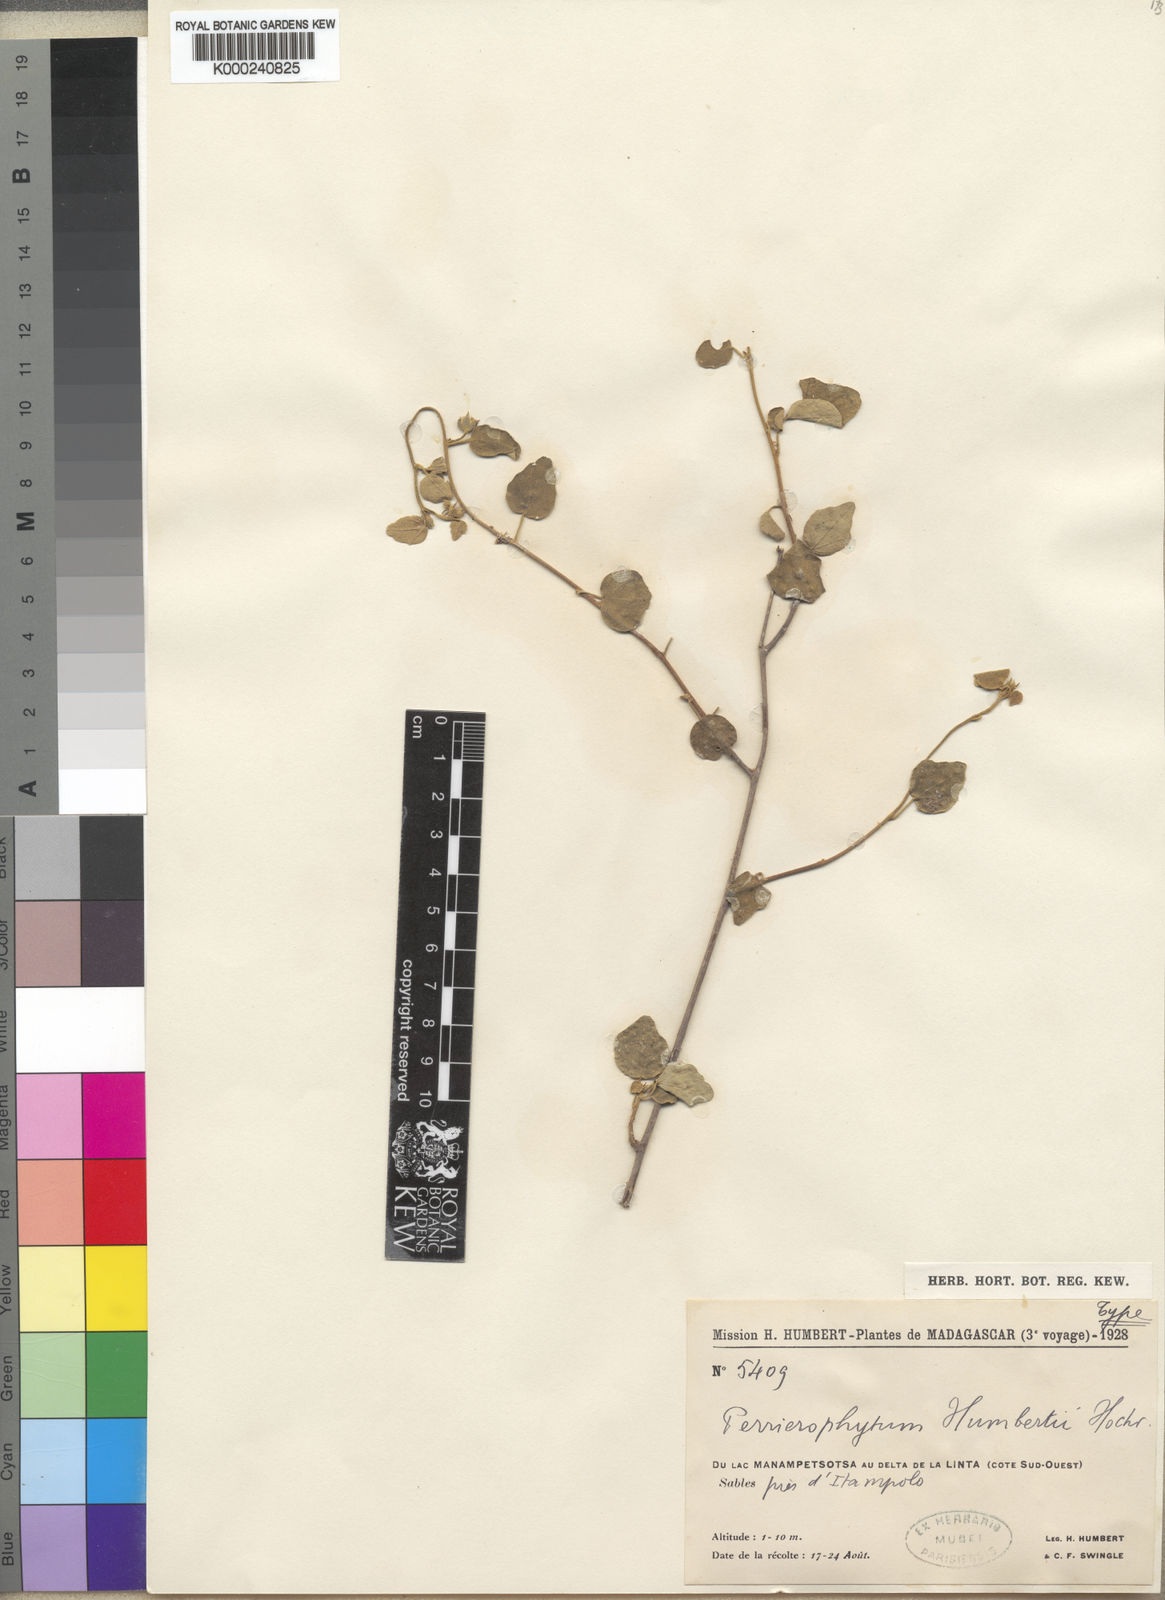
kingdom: Plantae
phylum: Tracheophyta
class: Magnoliopsida
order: Malvales
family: Malvaceae
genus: Perrierophytum
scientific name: Perrierophytum humbertii
